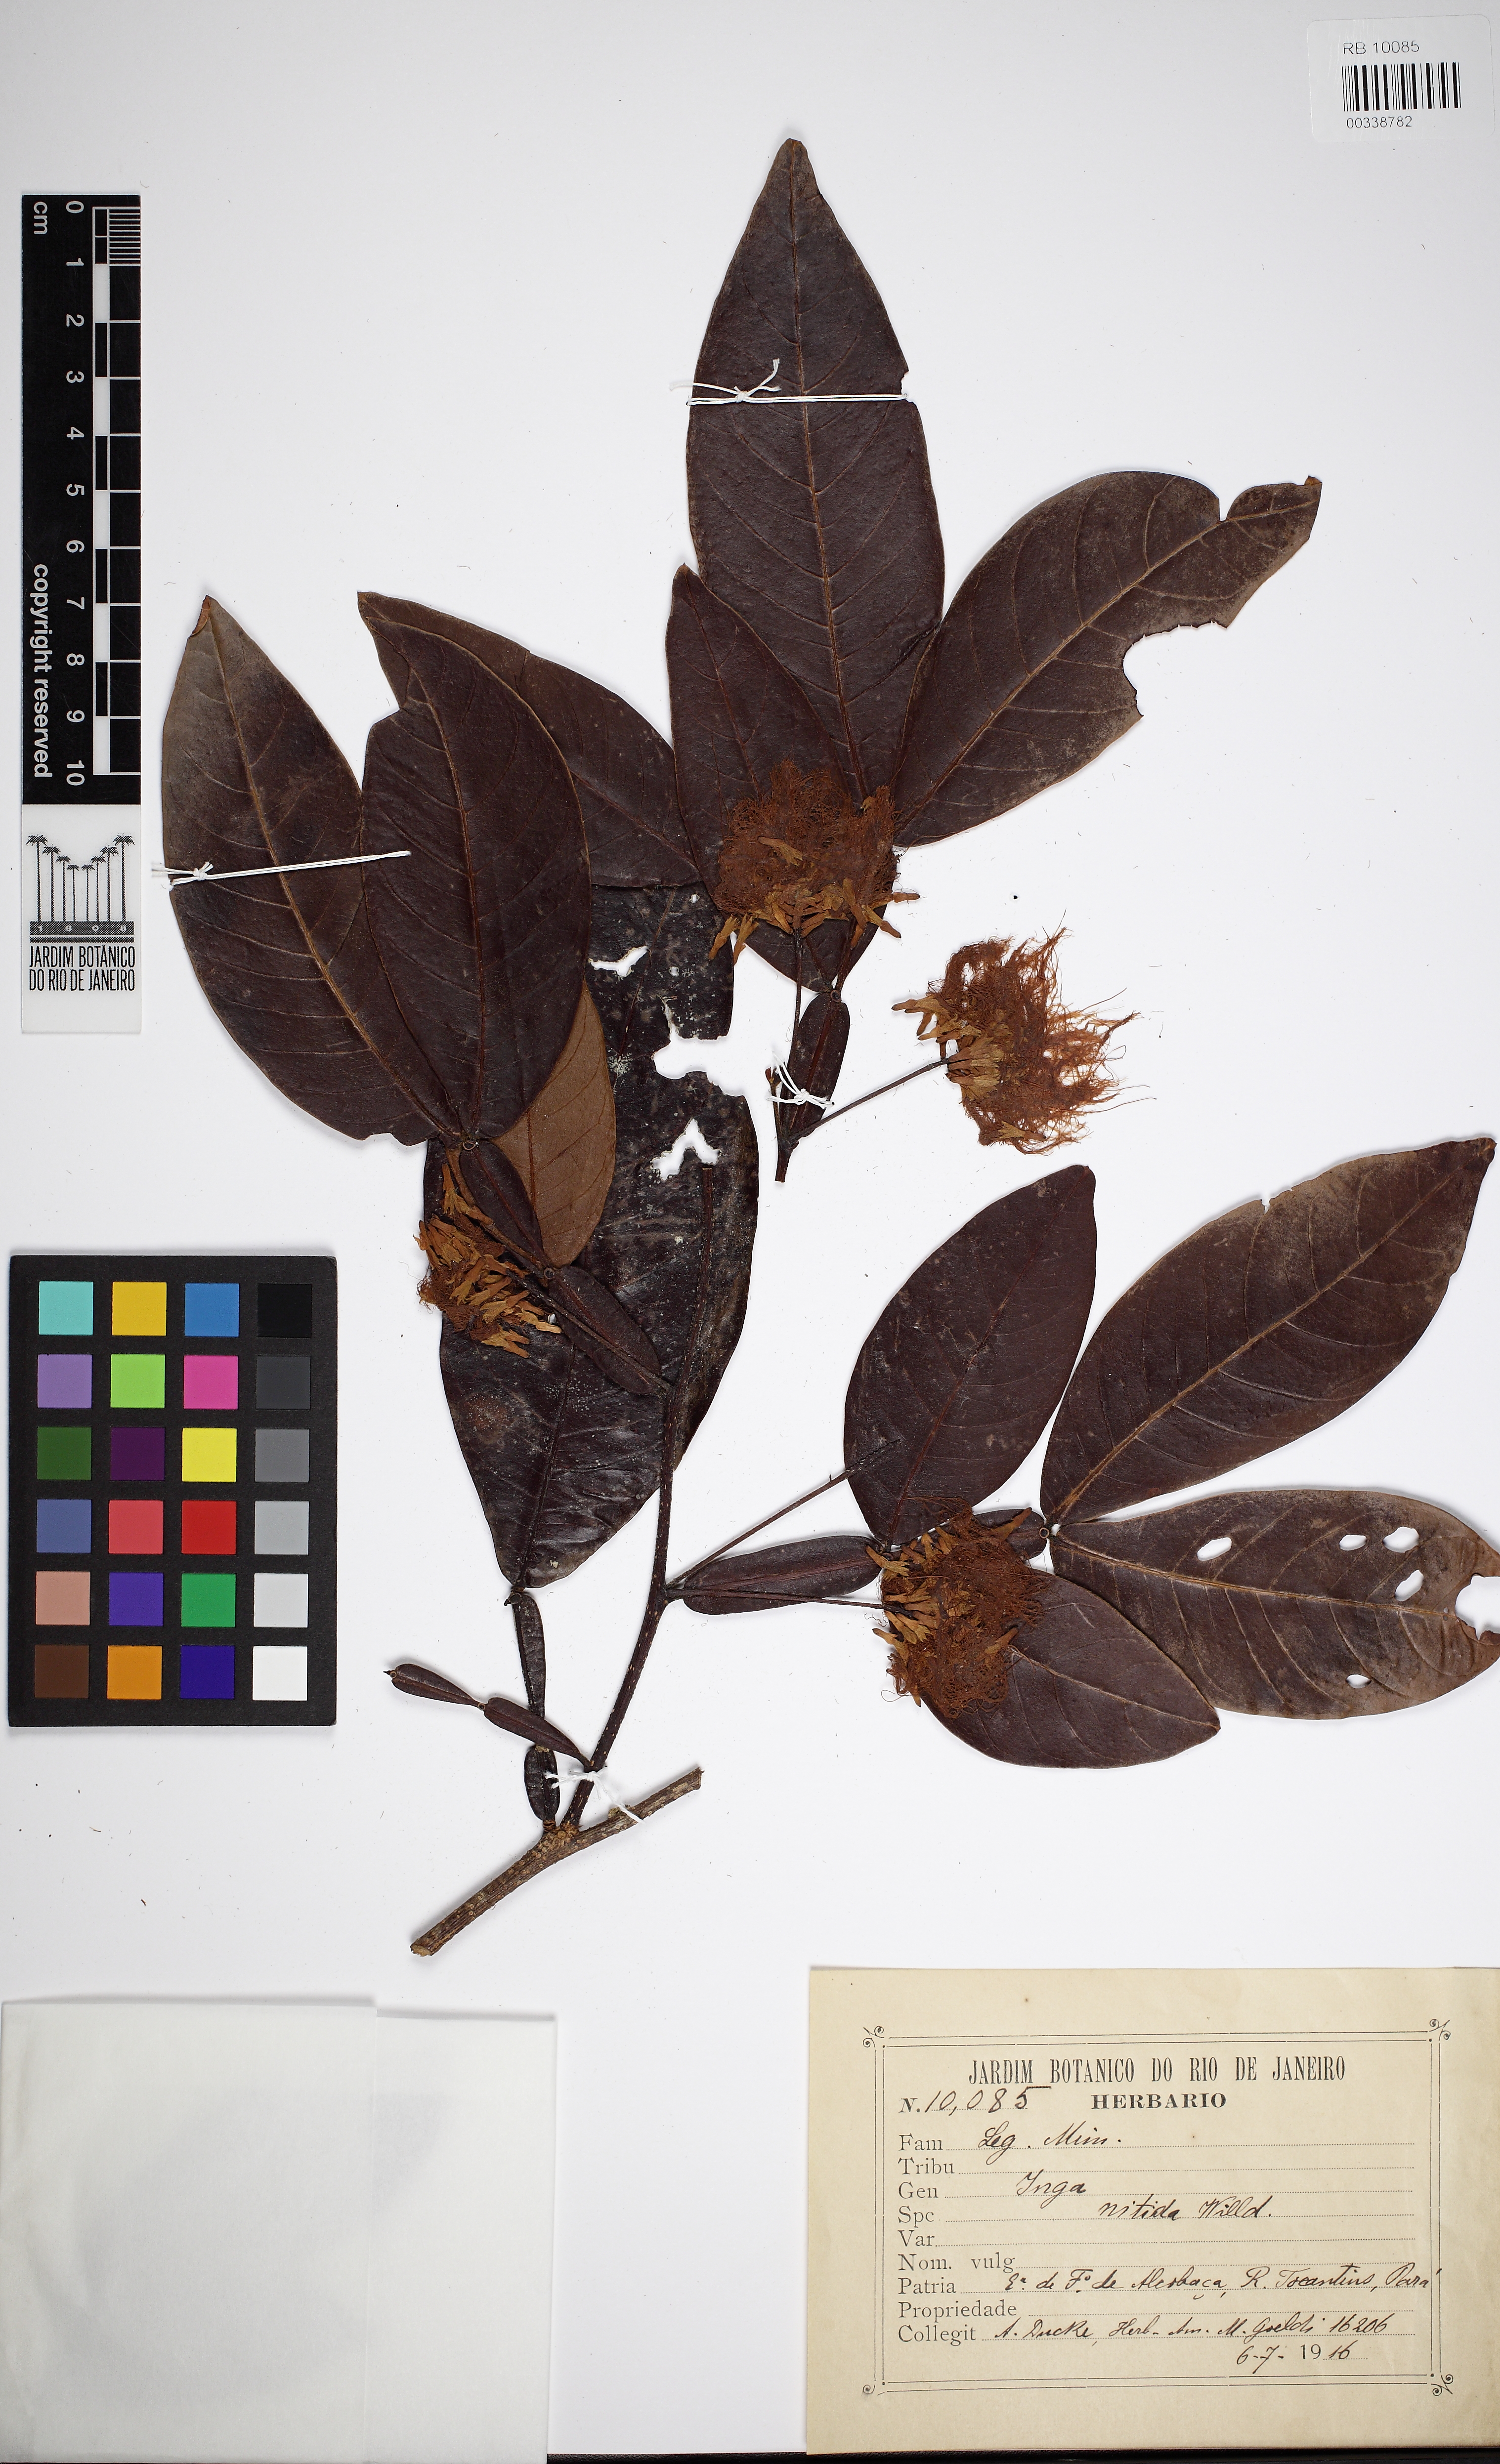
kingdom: Plantae
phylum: Tracheophyta
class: Magnoliopsida
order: Fabales
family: Fabaceae
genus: Inga
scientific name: Inga pilosula
